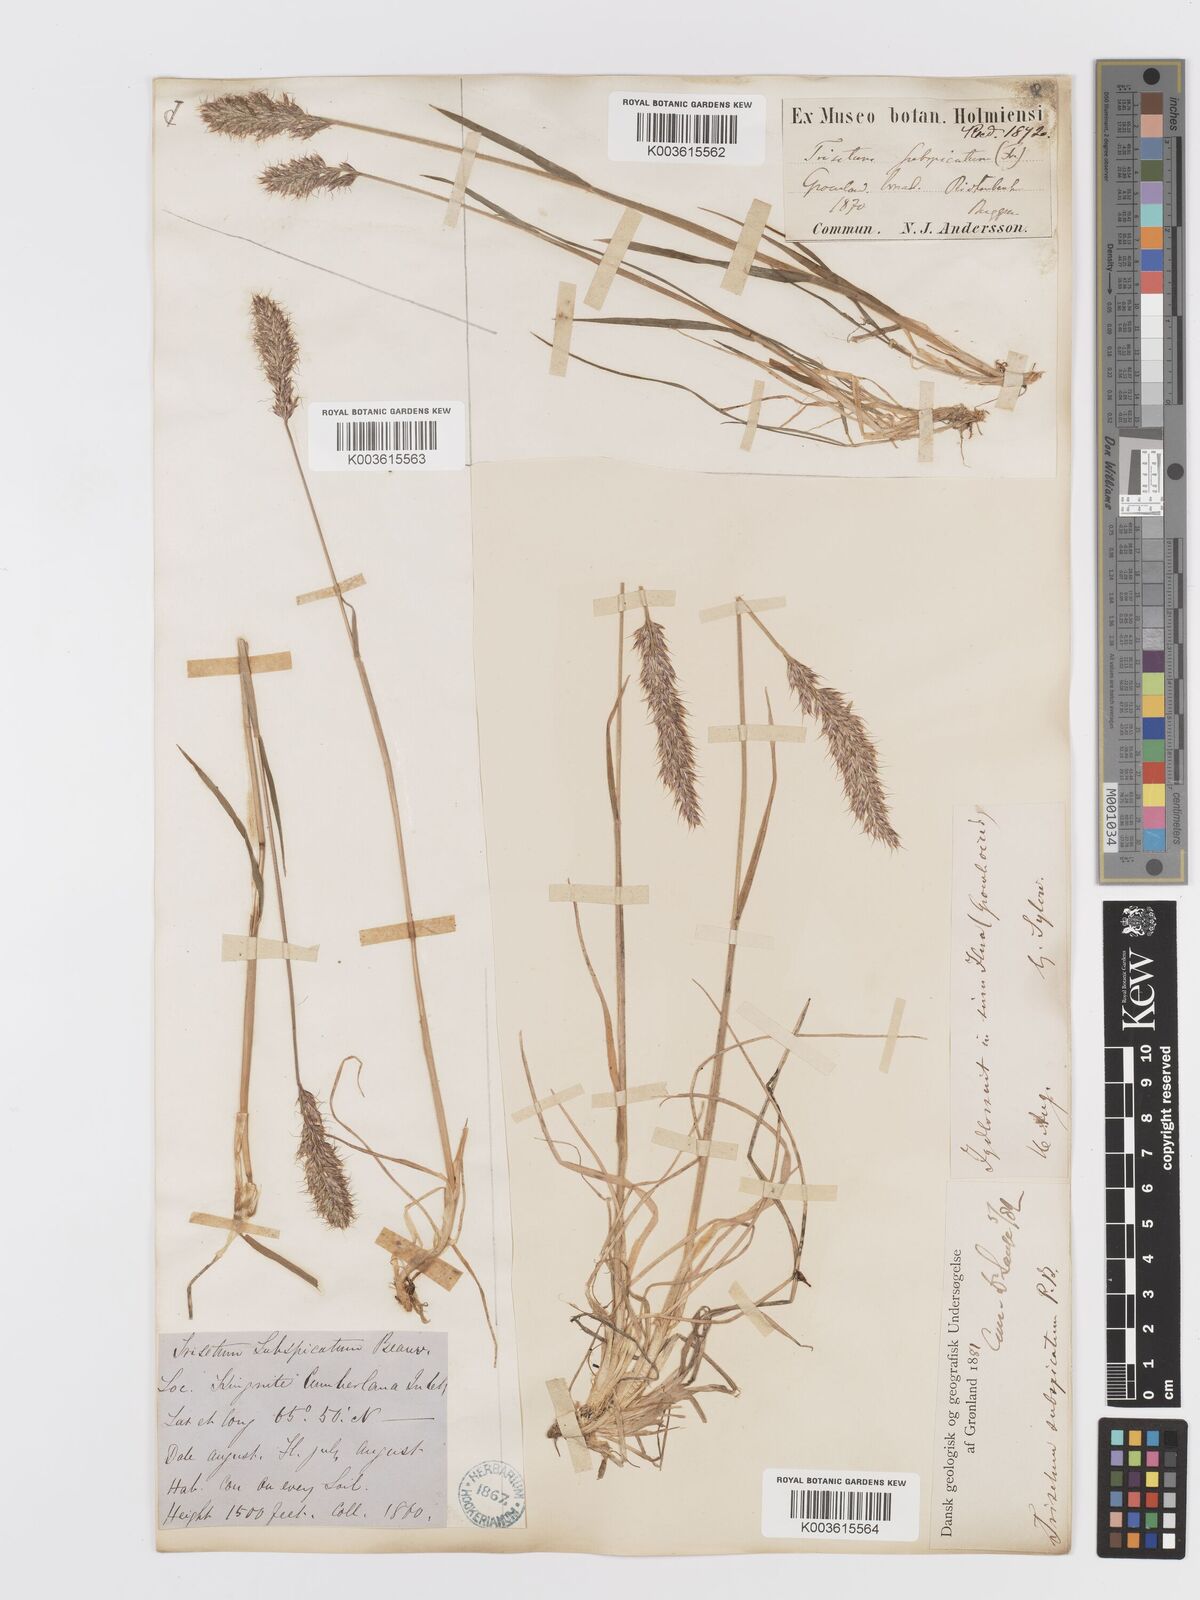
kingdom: Plantae
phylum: Tracheophyta
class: Liliopsida
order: Poales
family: Poaceae
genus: Koeleria
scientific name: Koeleria spicata
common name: Mountain trisetum
